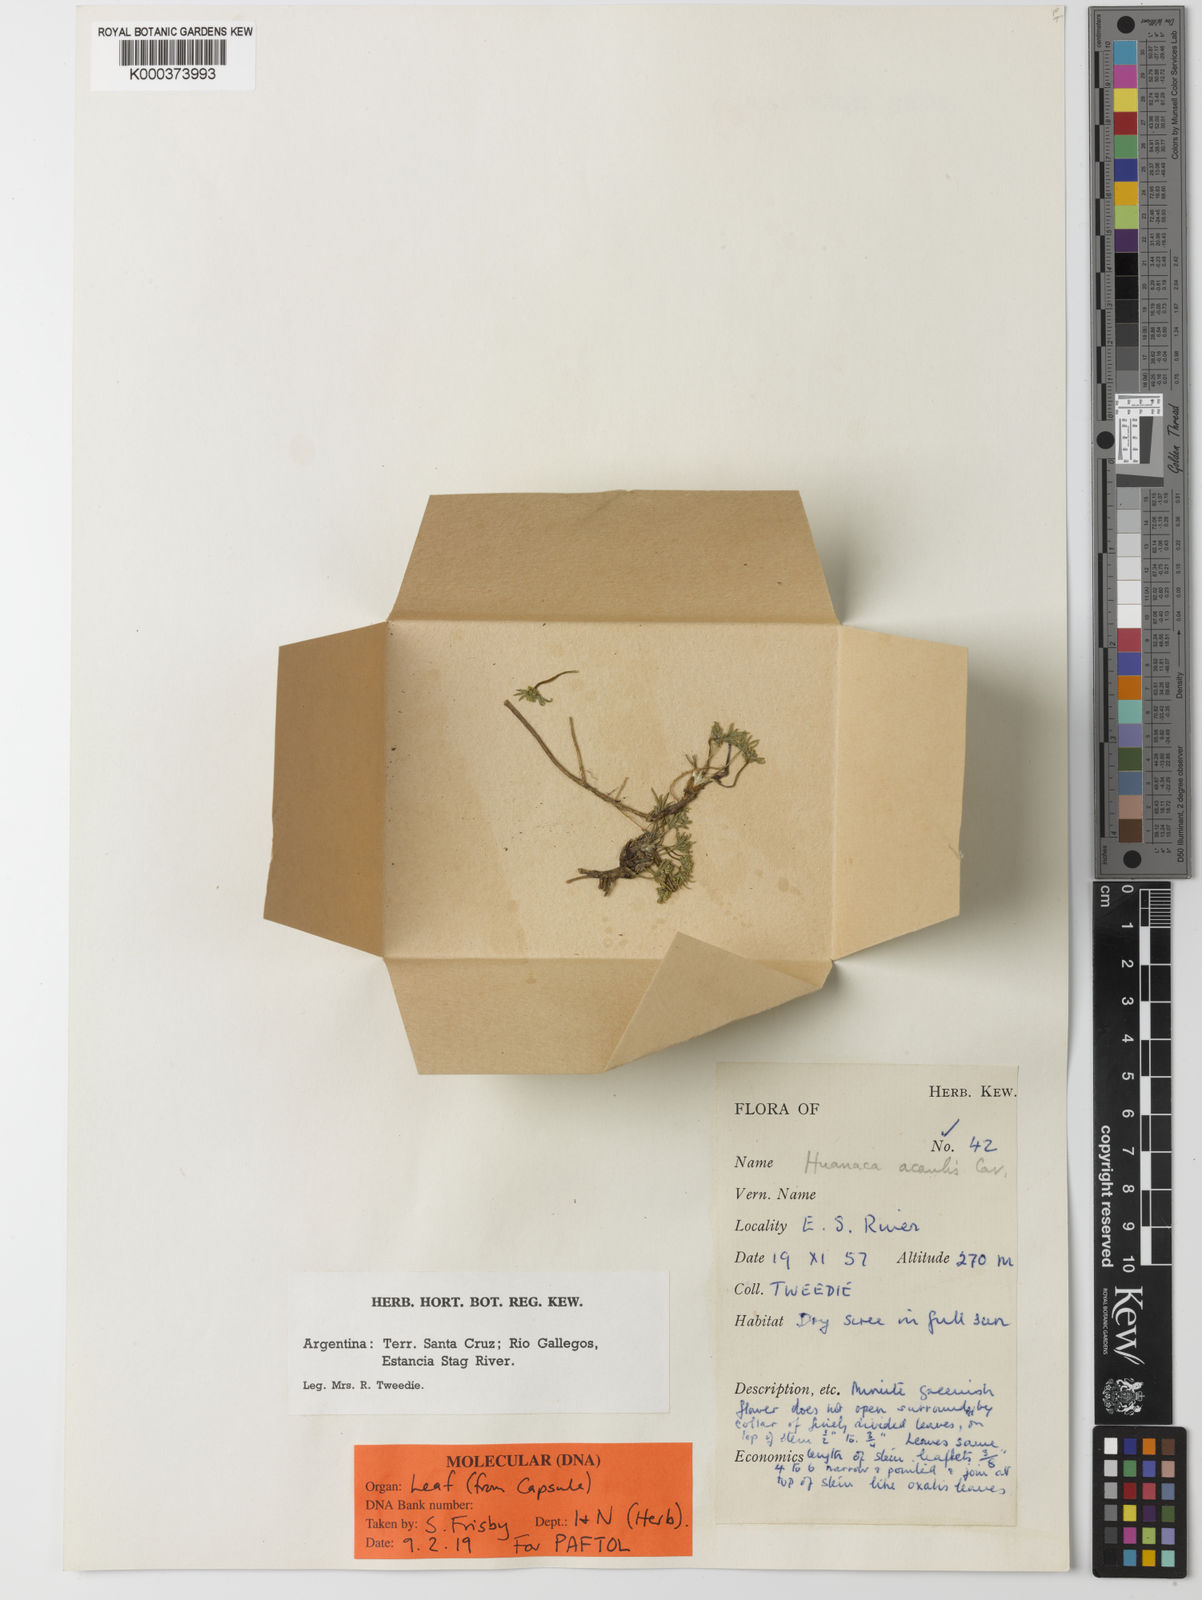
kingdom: Plantae
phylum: Tracheophyta
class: Magnoliopsida
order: Apiales
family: Apiaceae
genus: Azorella
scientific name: Azorella acaulis
